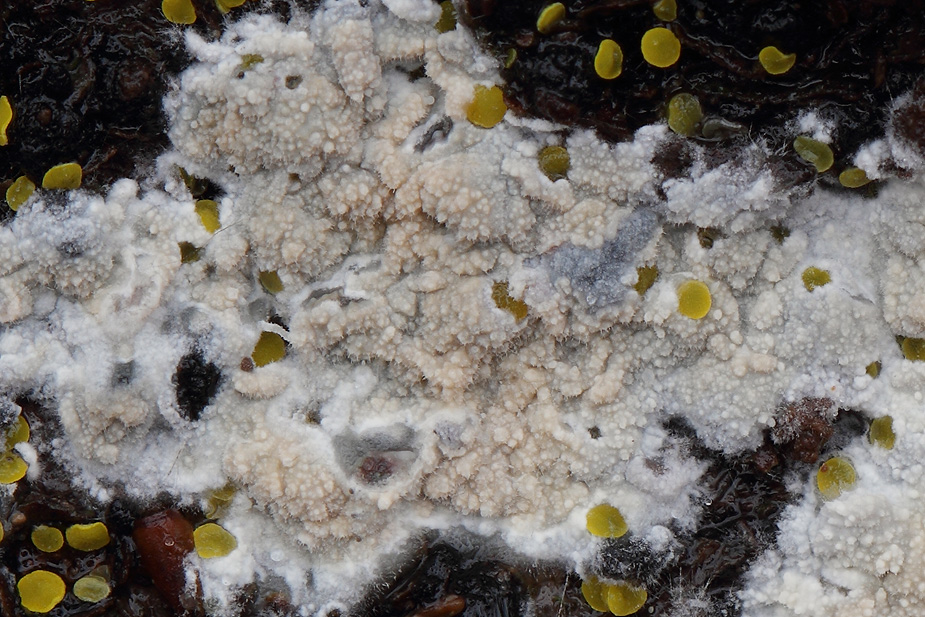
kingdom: Fungi
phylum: Basidiomycota
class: Agaricomycetes
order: Polyporales
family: Hyphodermataceae
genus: Hyphoderma
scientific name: Hyphoderma setigerum
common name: håret kalkskind
